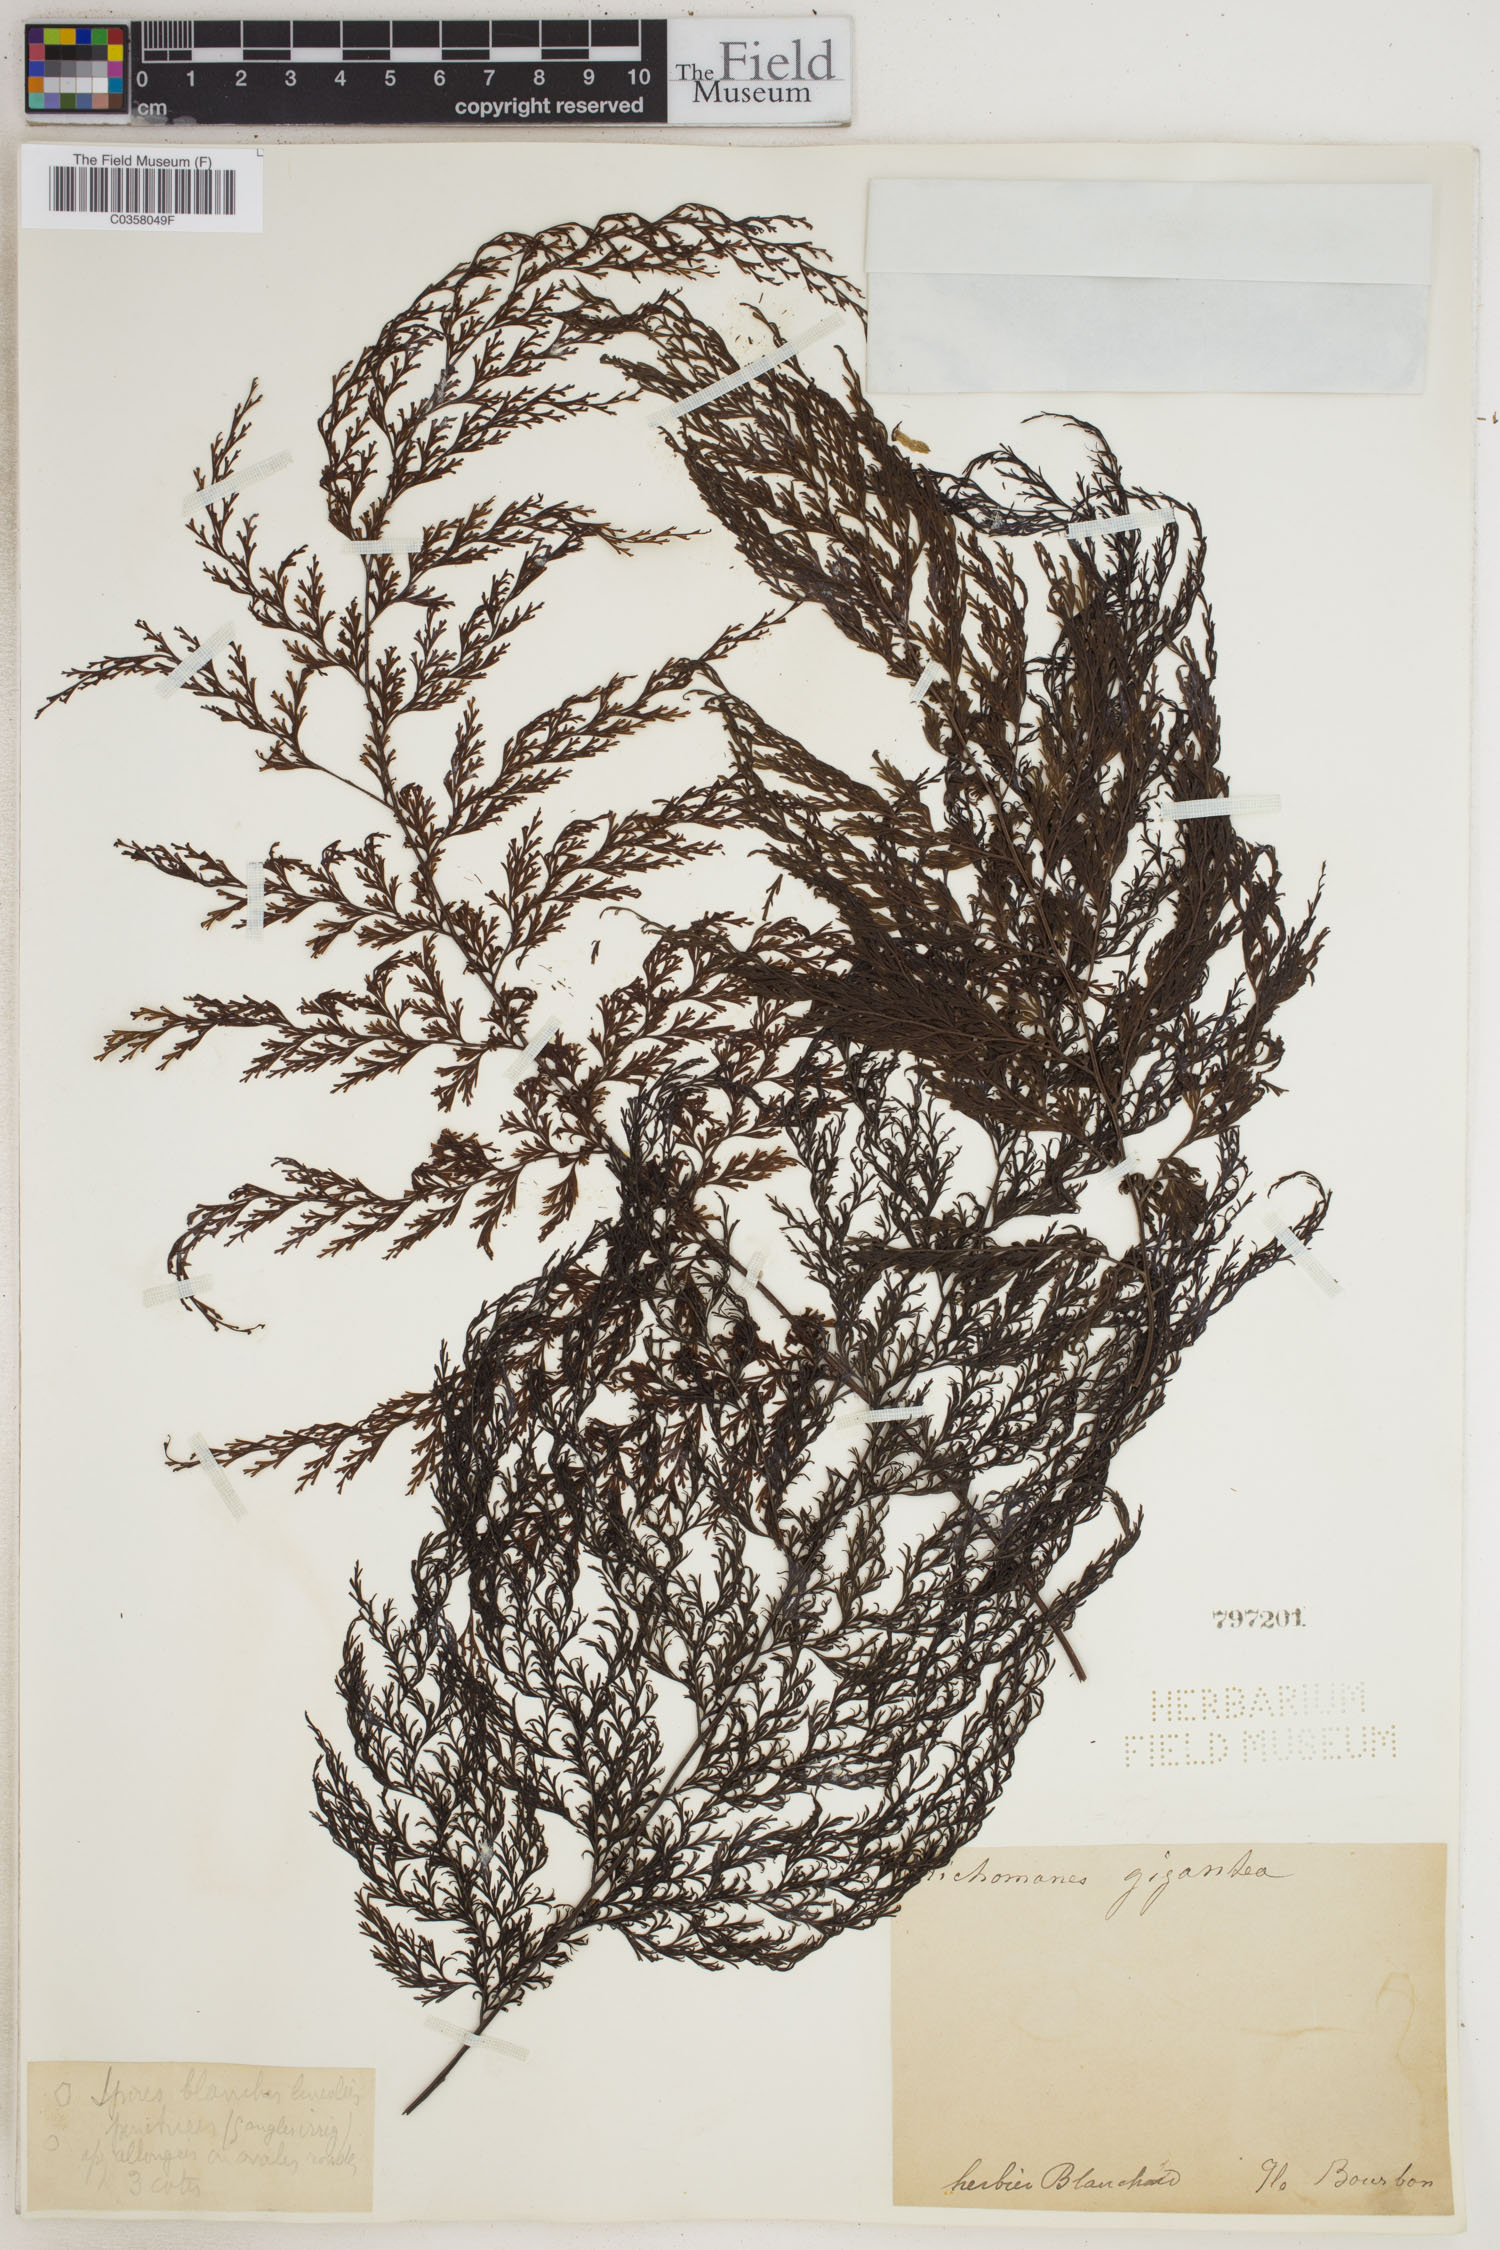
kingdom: Plantae
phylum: Tracheophyta
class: Polypodiopsida
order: Hymenophyllales
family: Hymenophyllaceae
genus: Vandenboschia
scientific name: Vandenboschia gigantea
